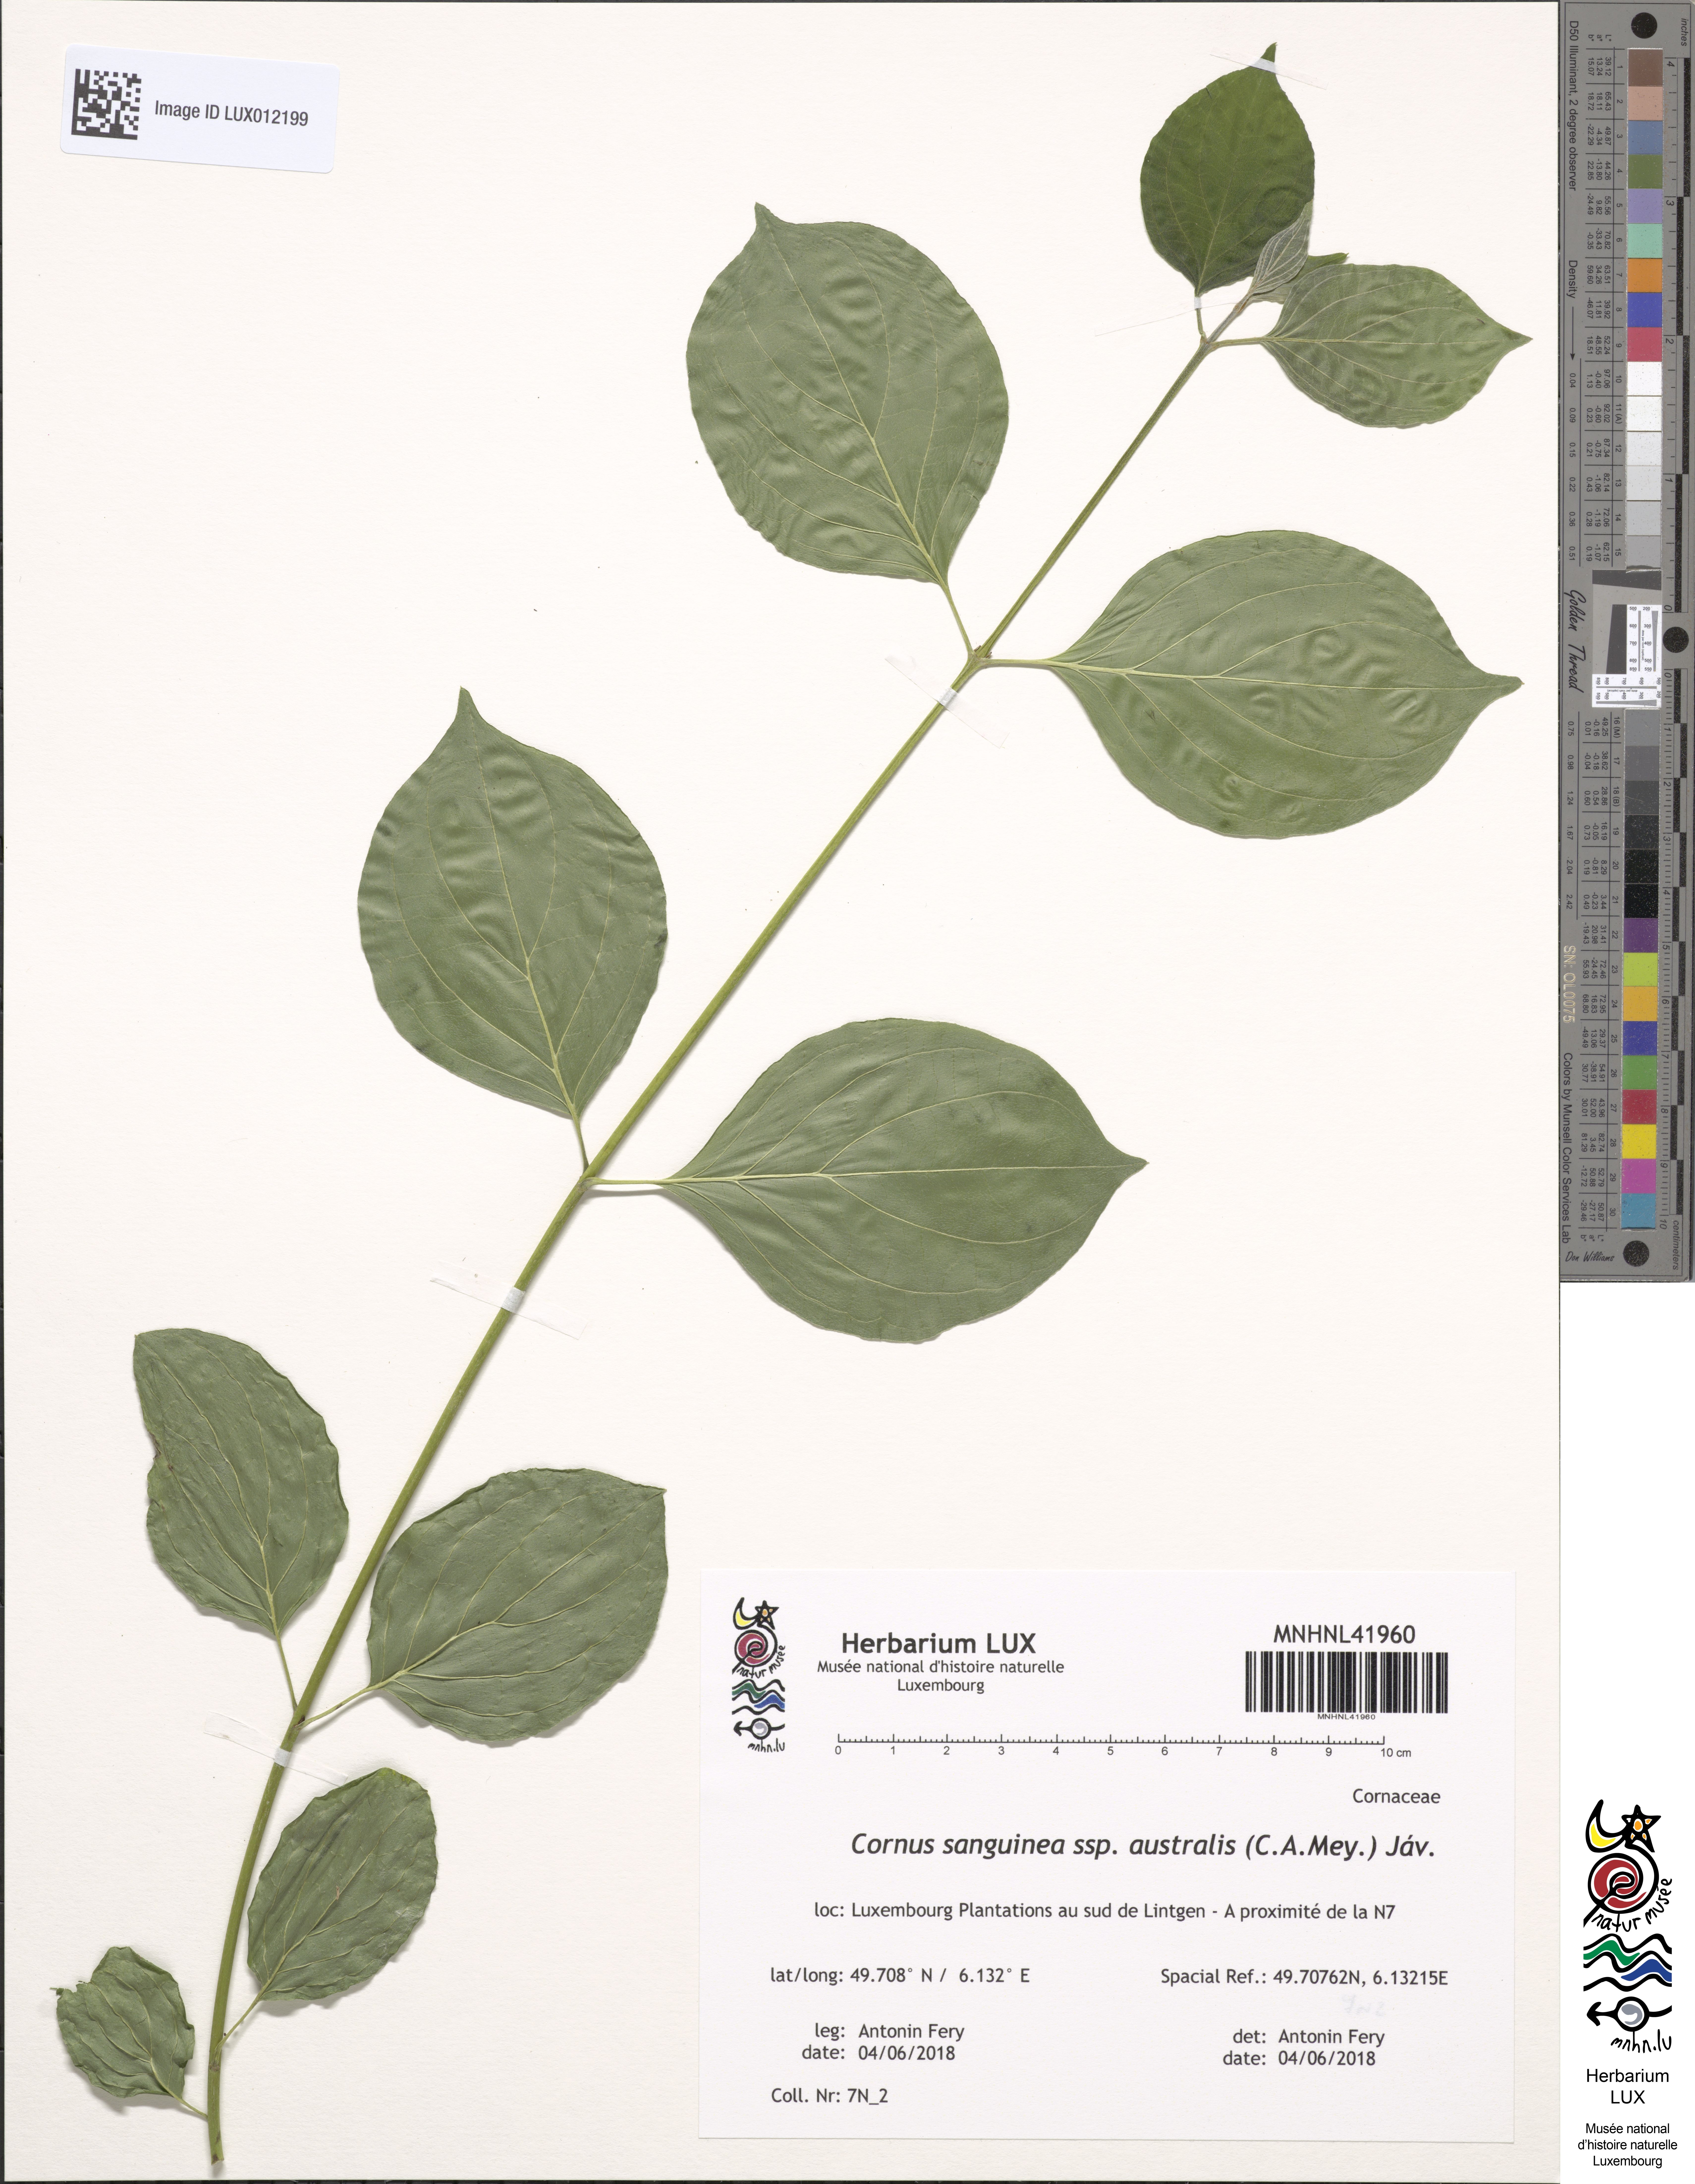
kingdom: Plantae
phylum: Tracheophyta
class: Magnoliopsida
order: Cornales
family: Cornaceae
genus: Cornus
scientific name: Cornus sanguinea
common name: Dogwood
